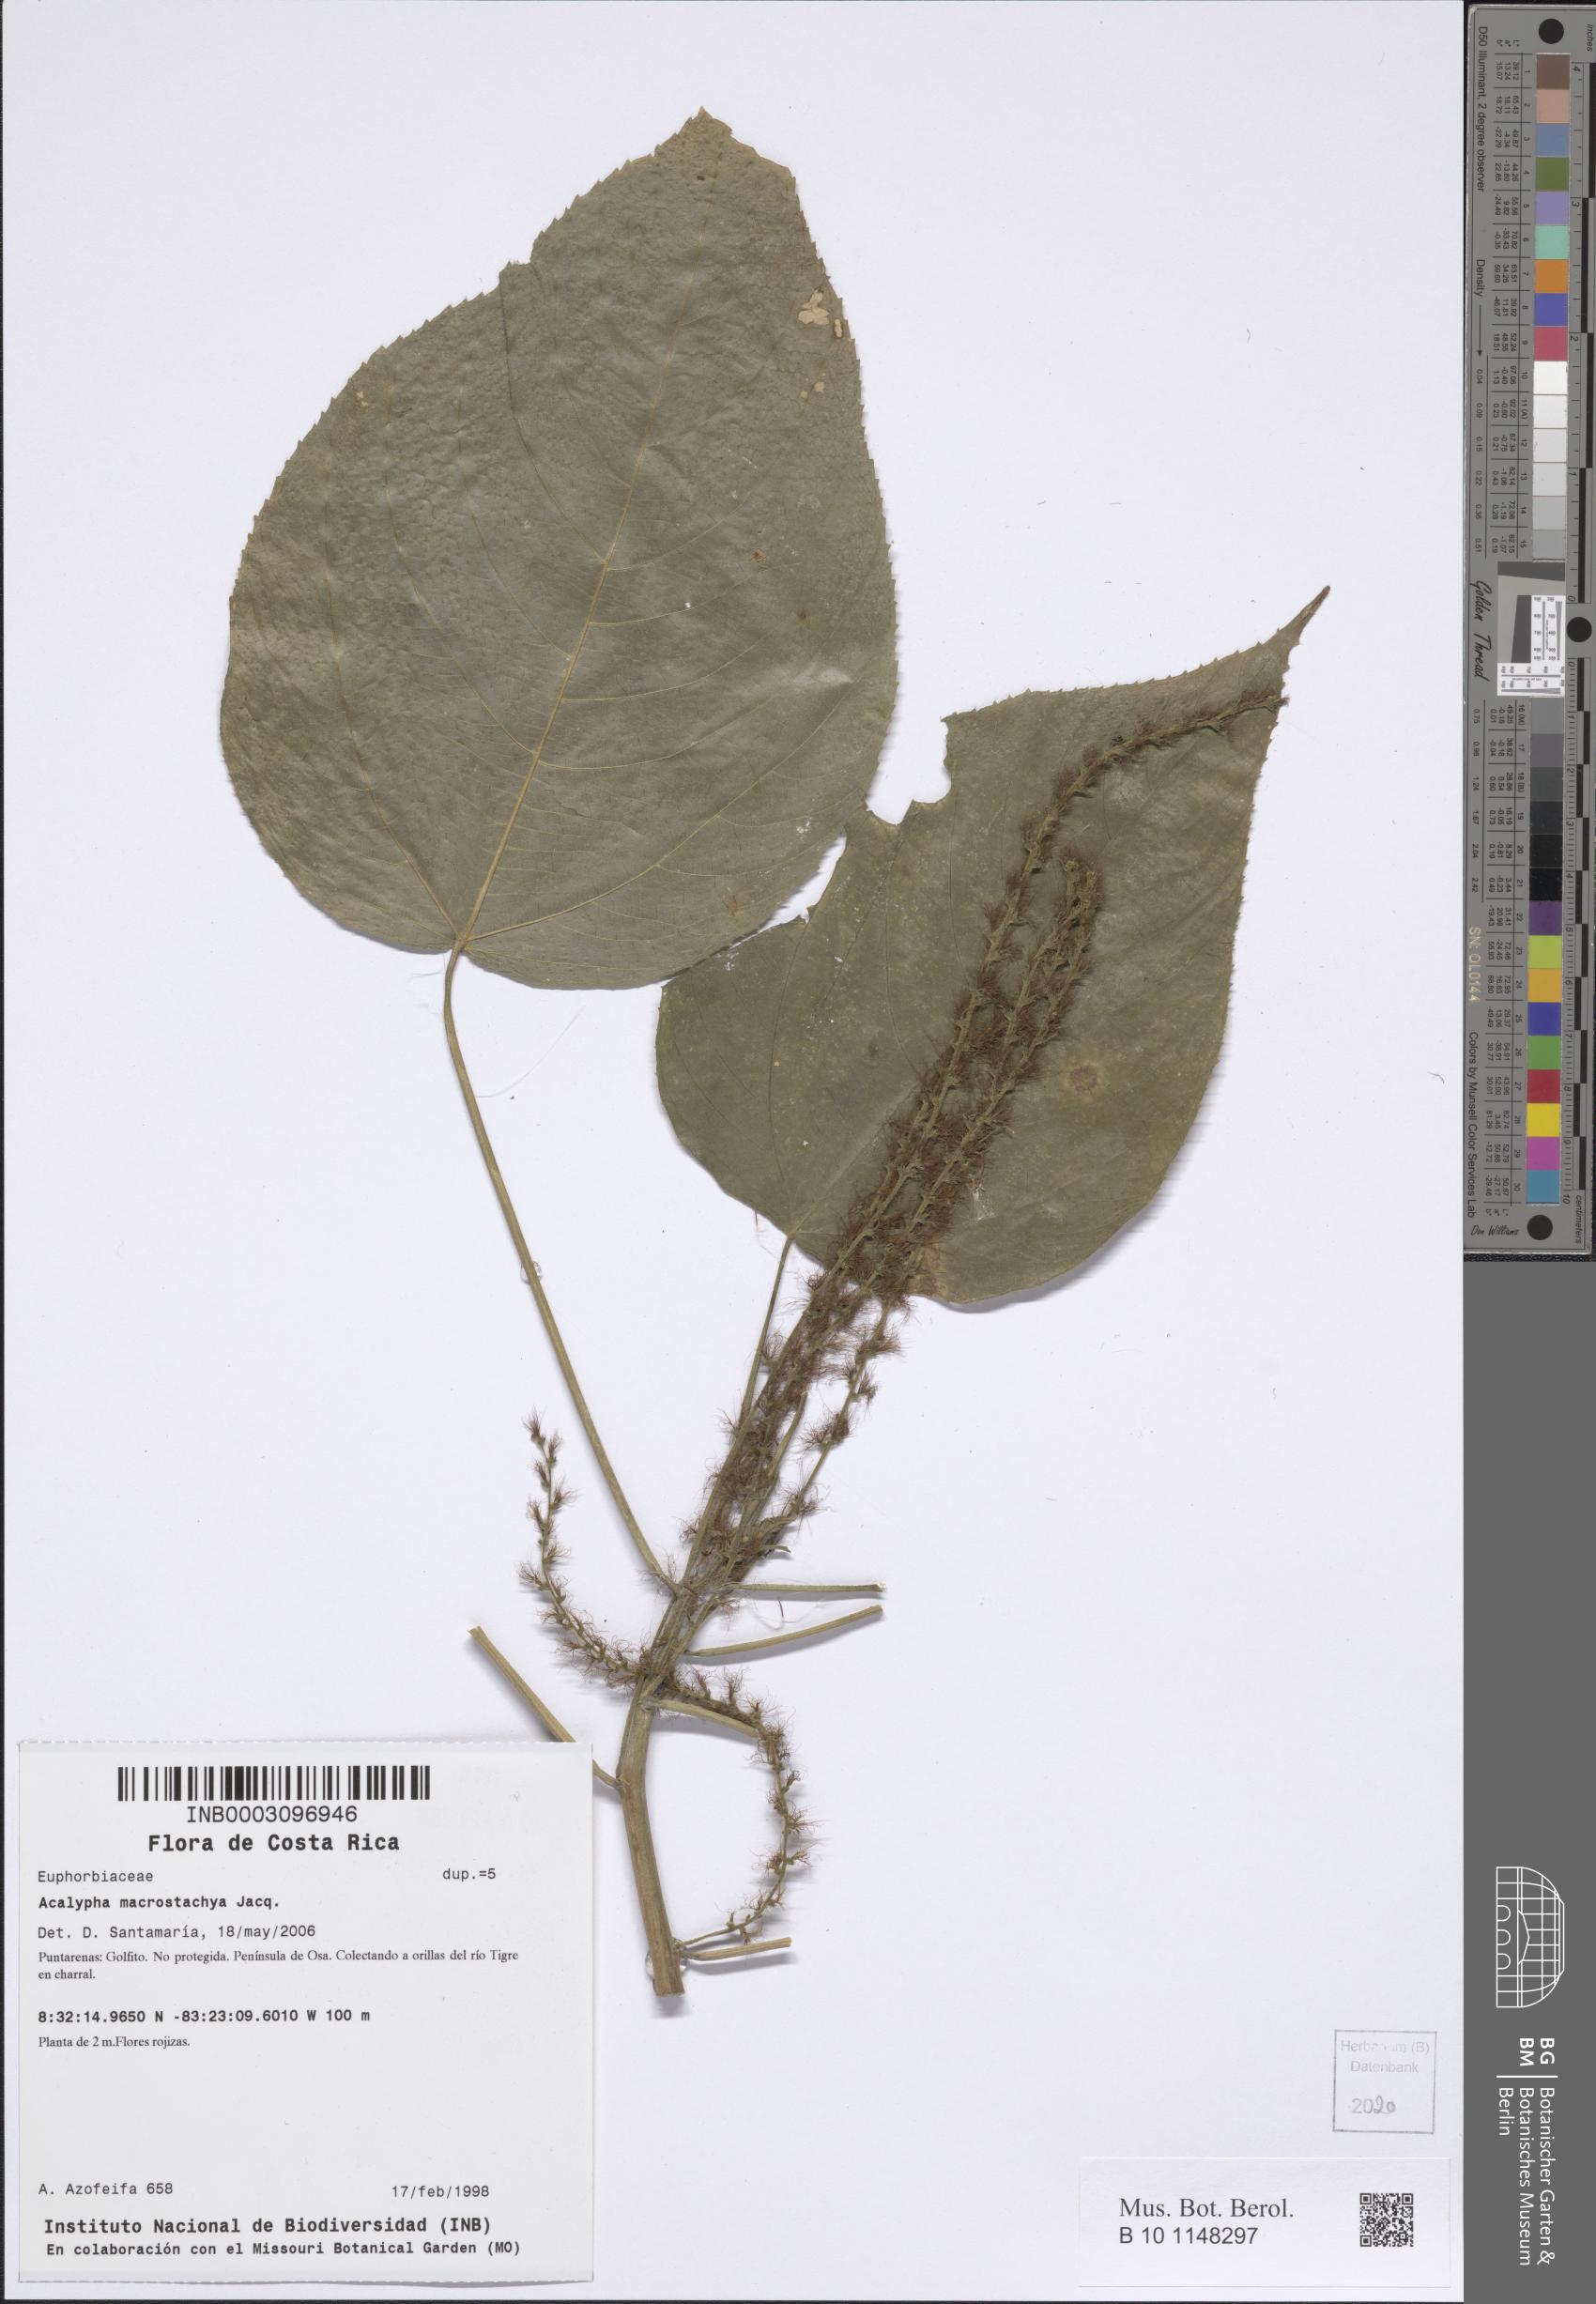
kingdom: Plantae
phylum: Tracheophyta
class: Magnoliopsida
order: Malpighiales
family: Euphorbiaceae
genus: Acalypha
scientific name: Acalypha macrostachya
